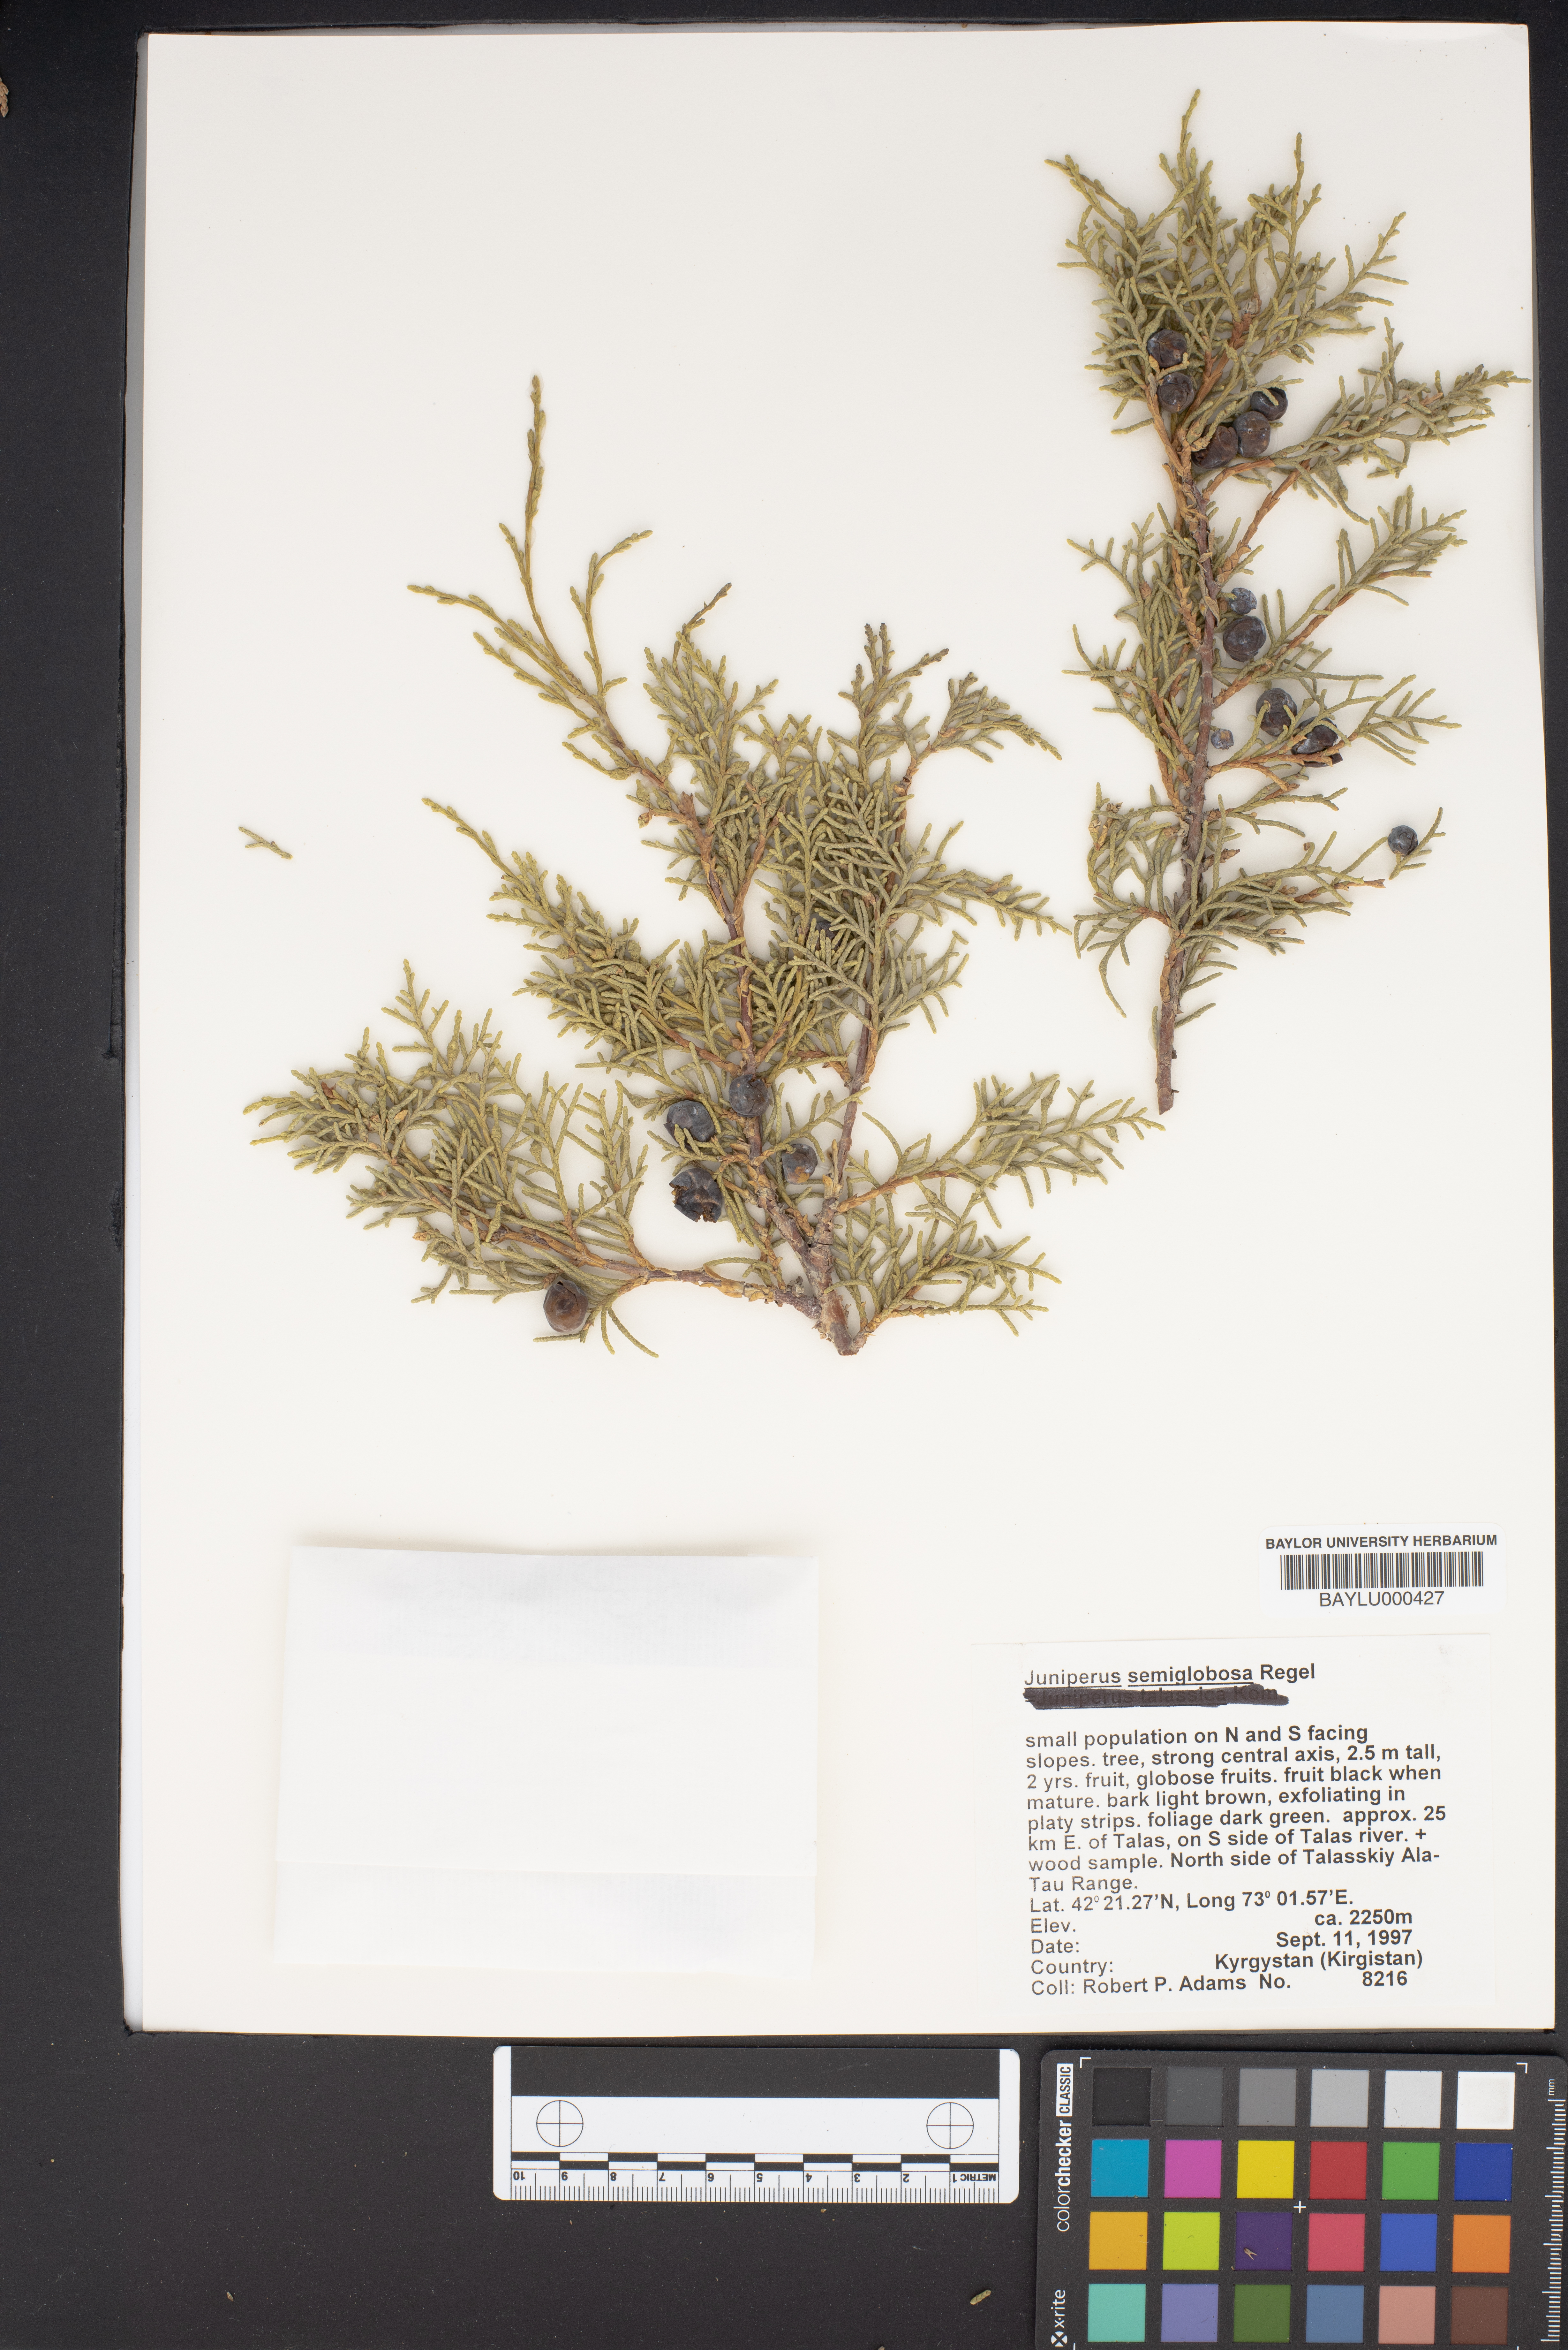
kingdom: Plantae
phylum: Tracheophyta
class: Pinopsida
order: Pinales
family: Cupressaceae
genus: Juniperus
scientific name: Juniperus semiglobosa
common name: Pencil cedar
